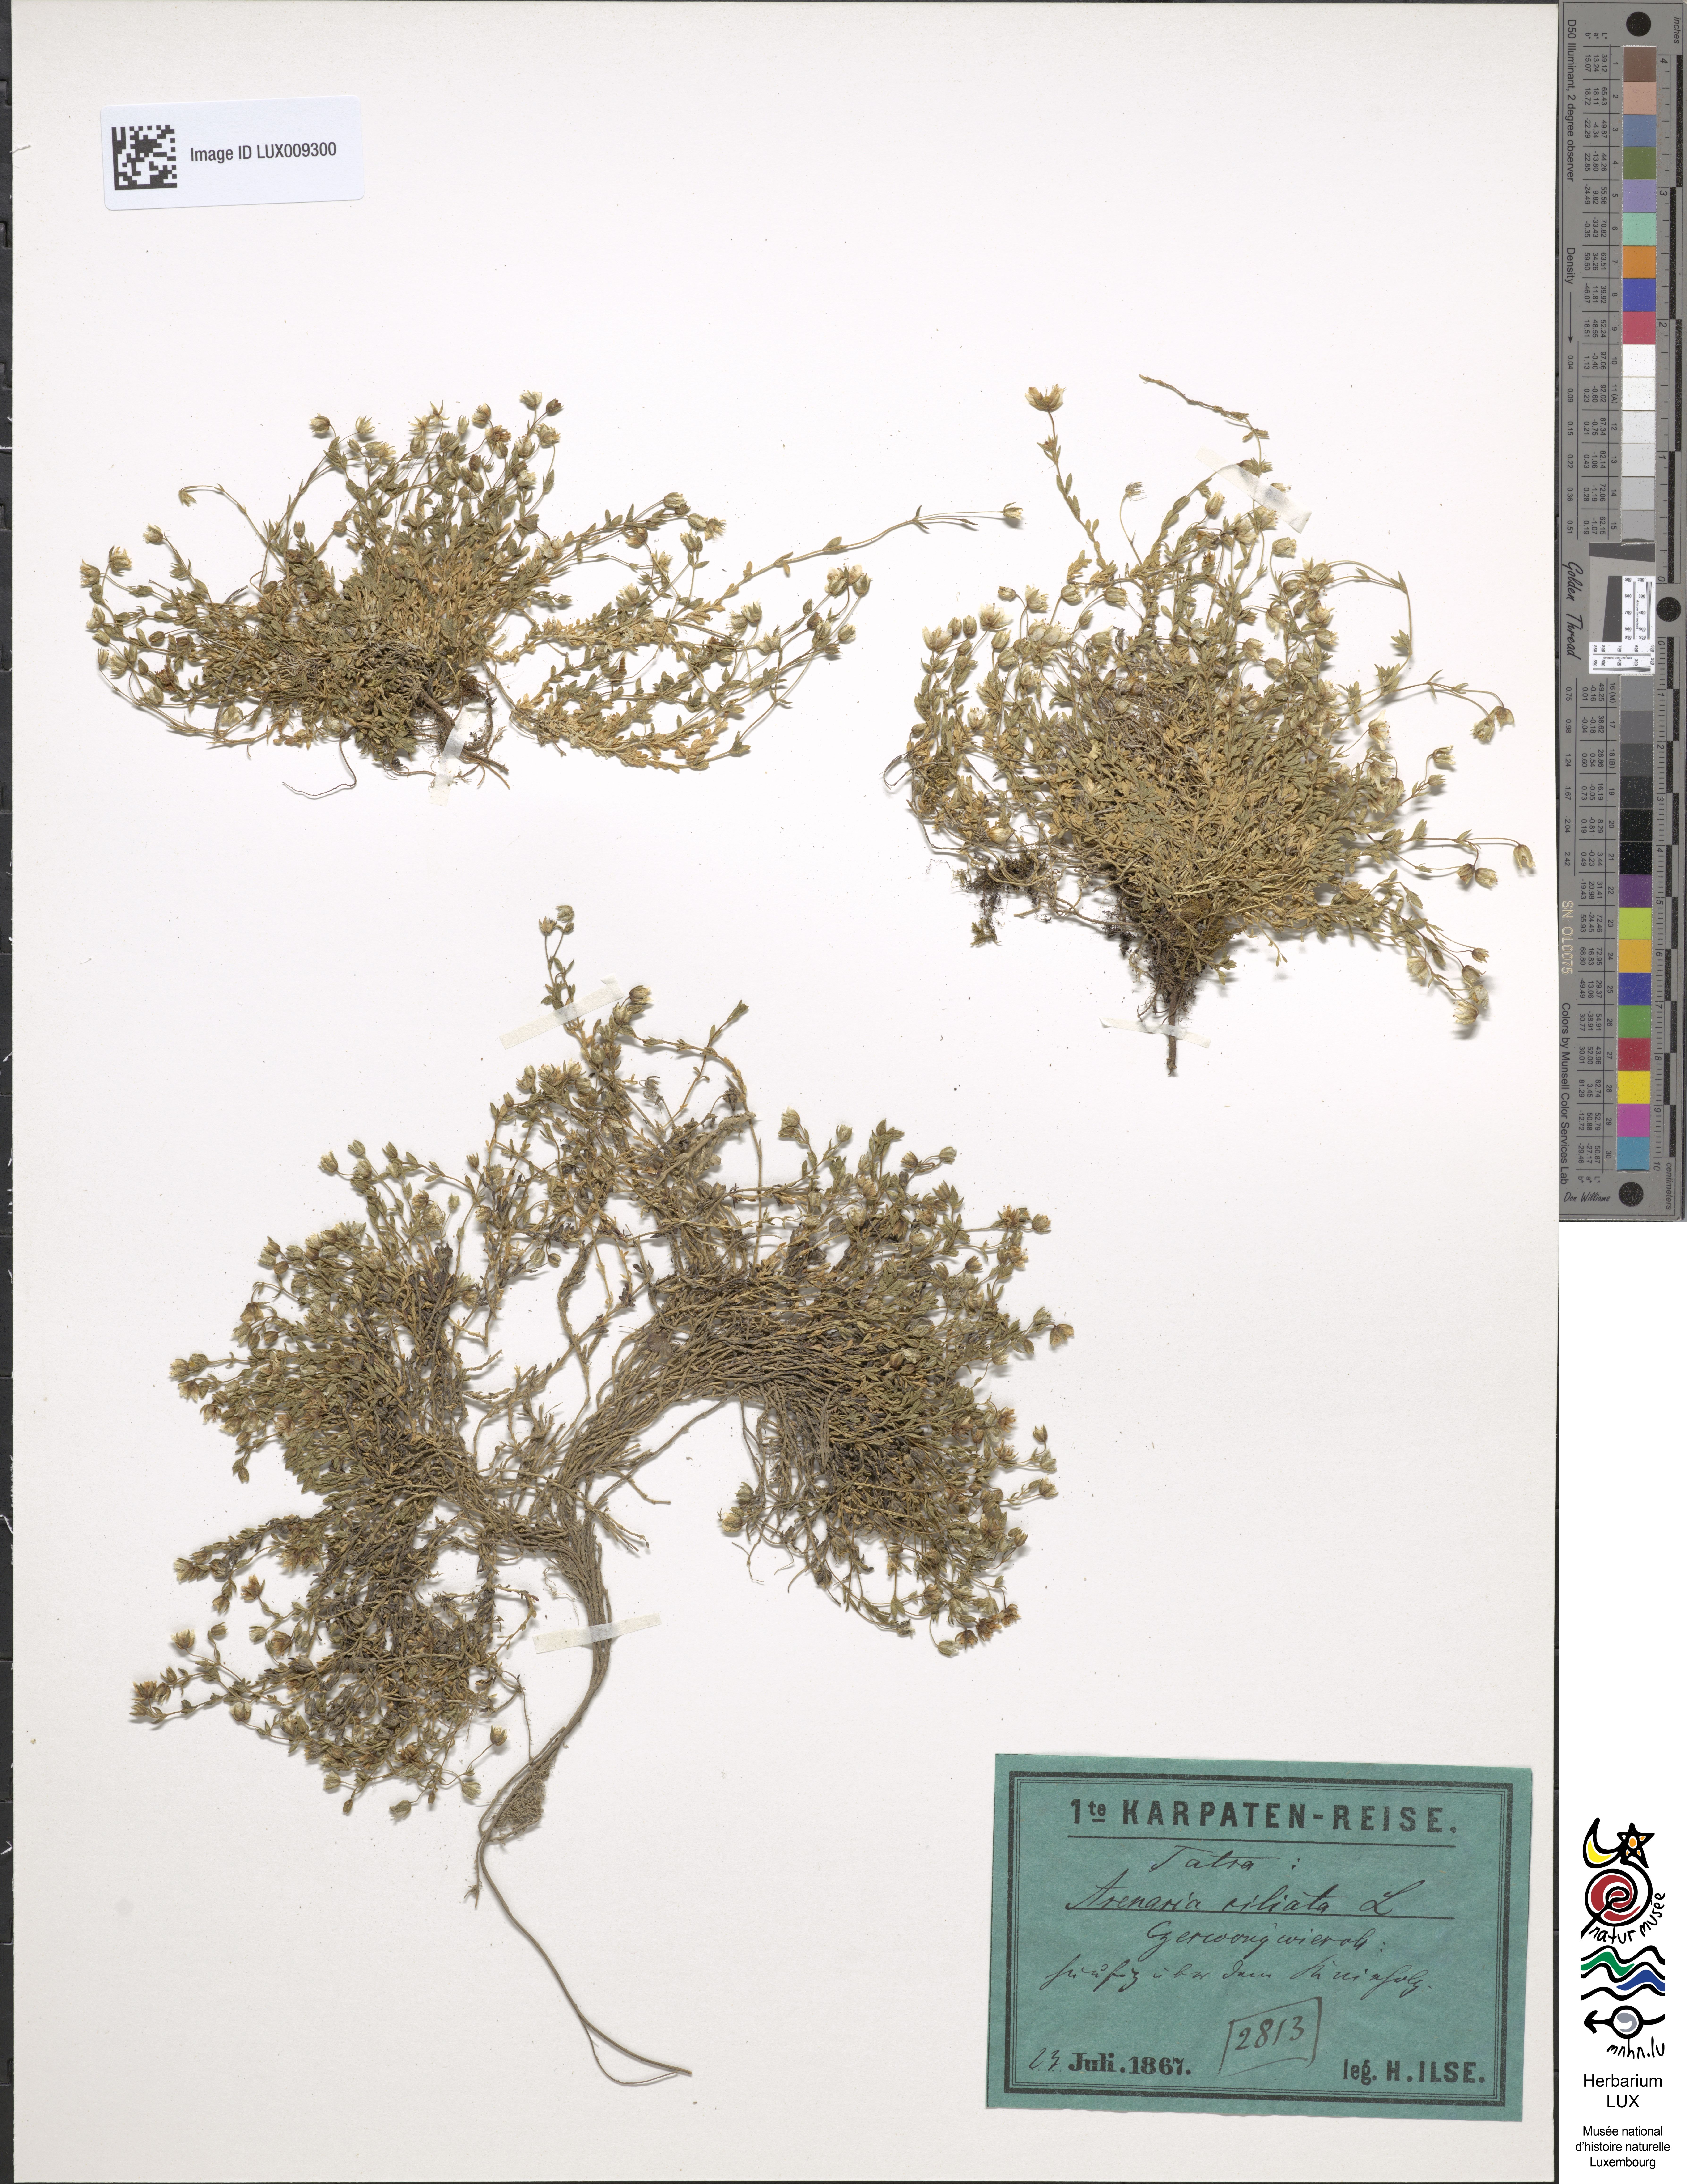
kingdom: Animalia
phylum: Chordata
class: Aves
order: Charadriiformes
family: Scolopacidae
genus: Arenaria
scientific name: Arenaria
